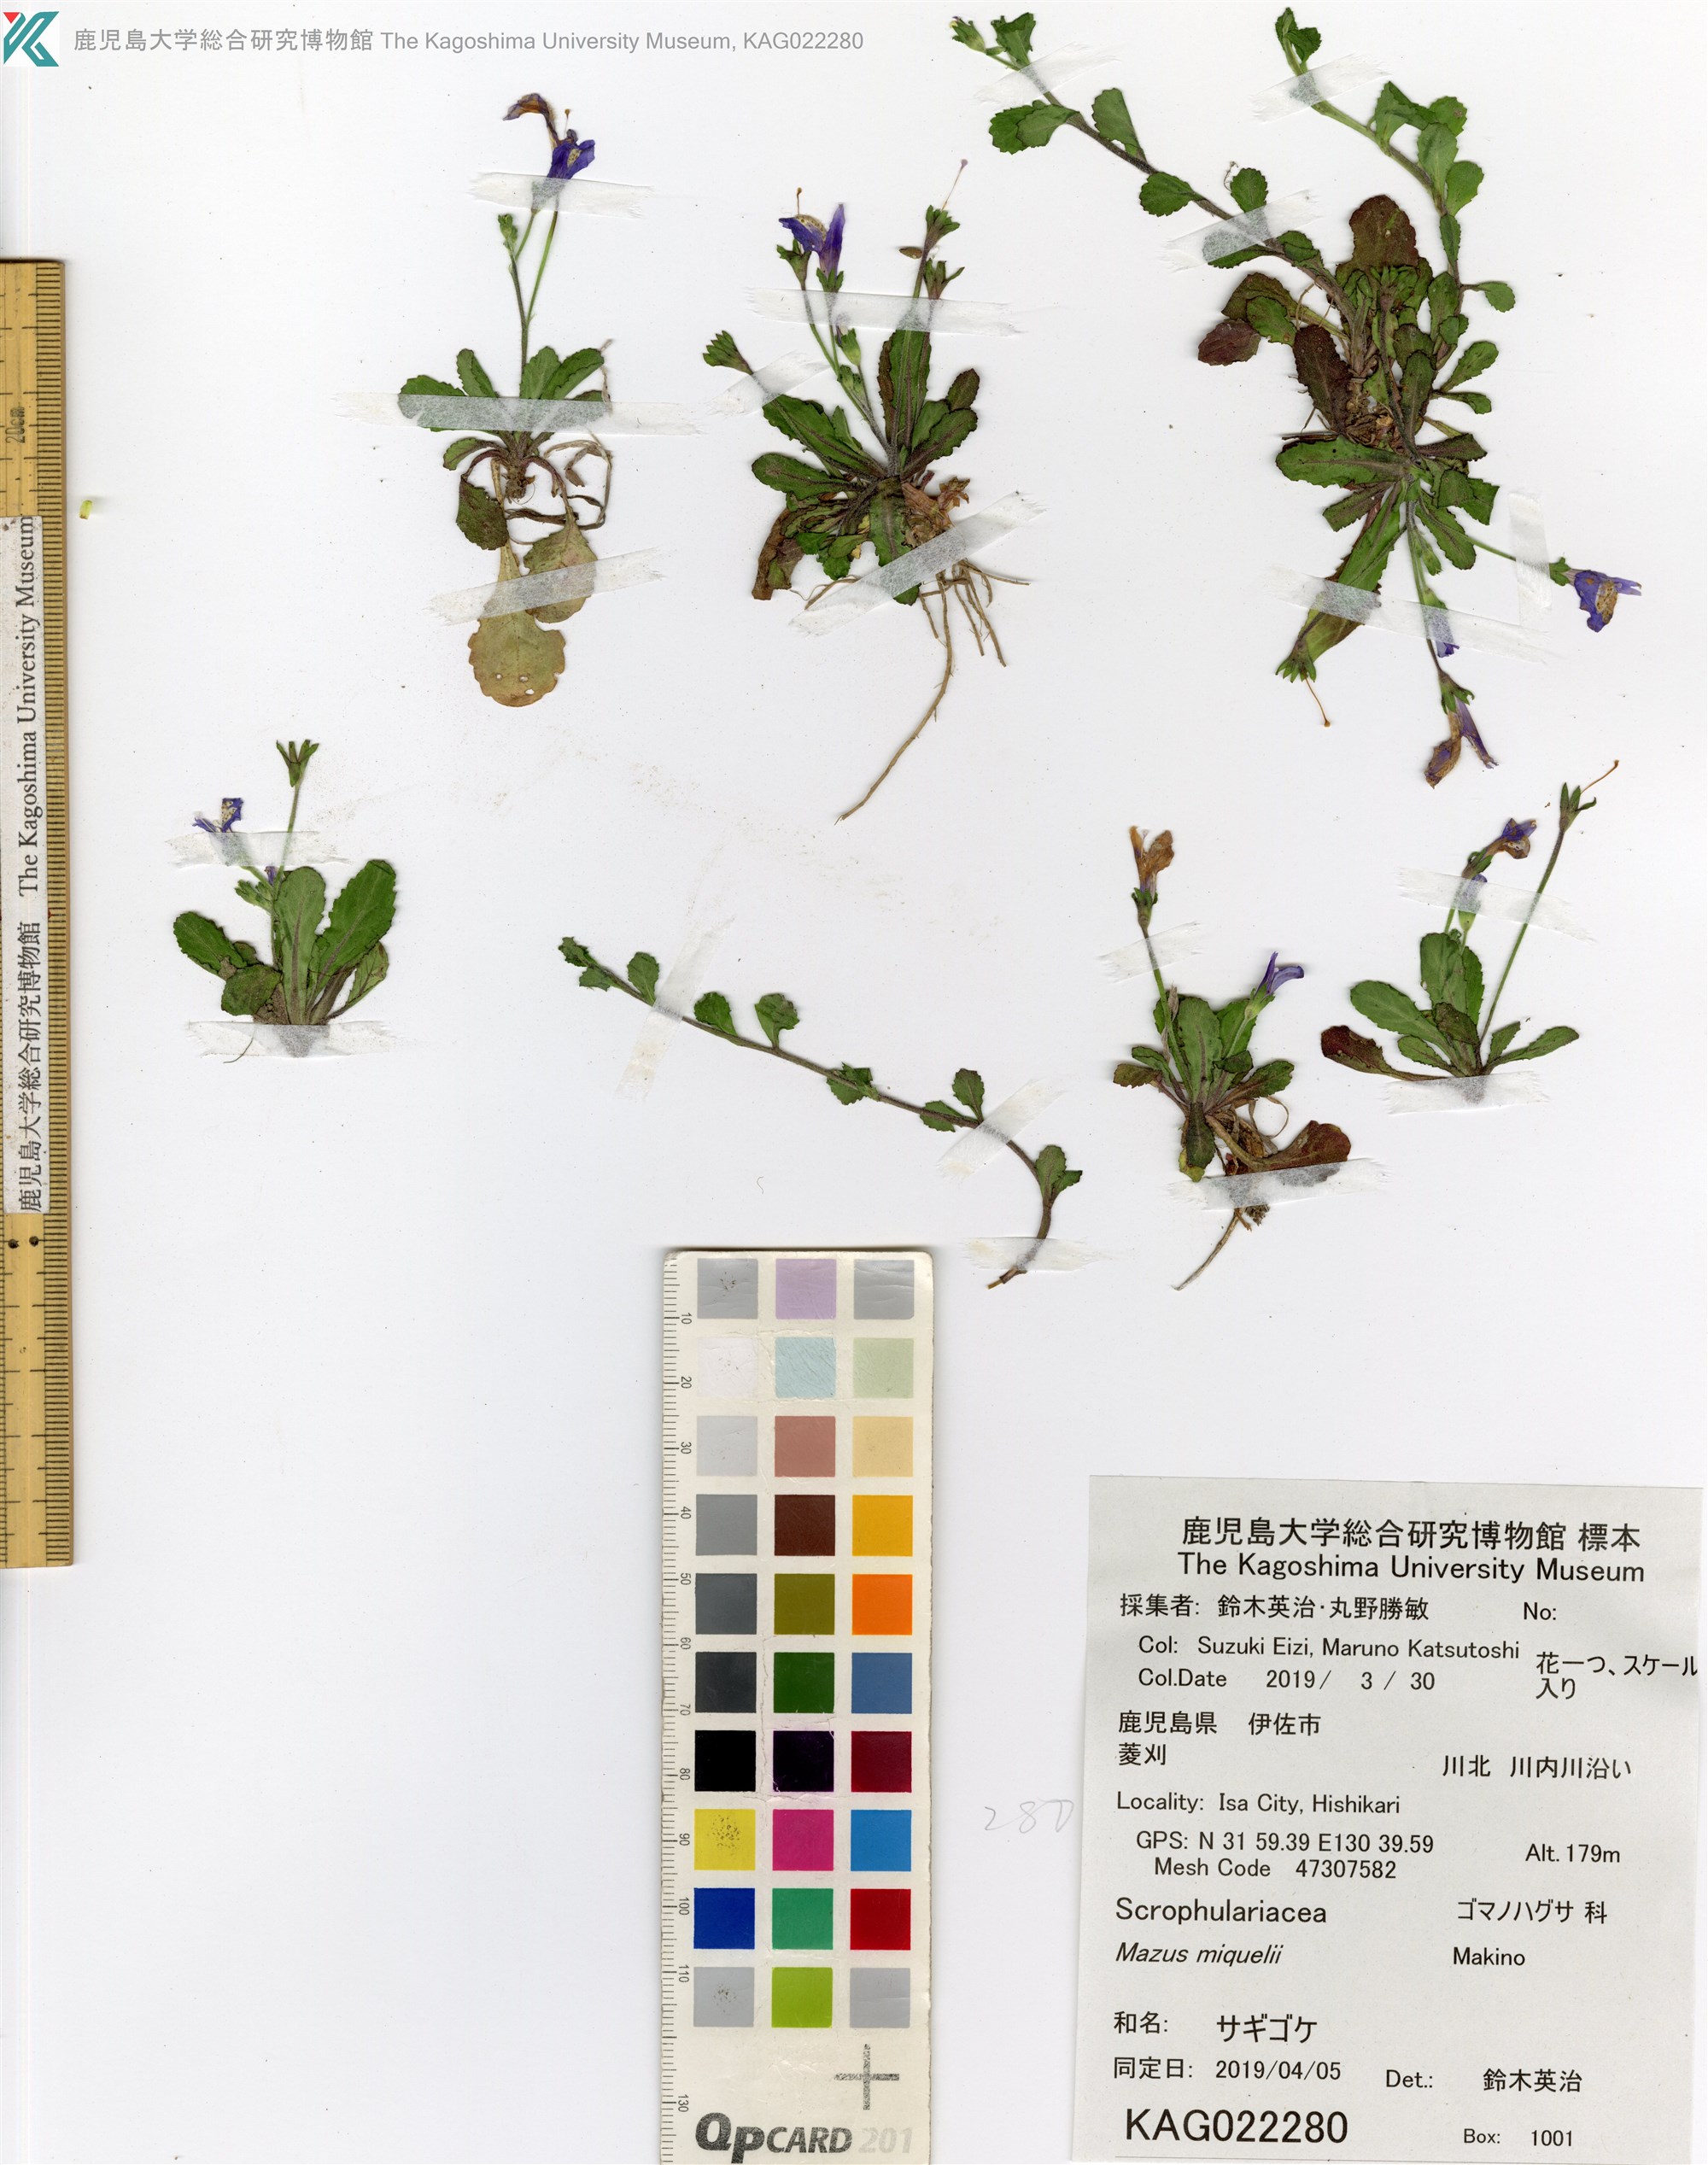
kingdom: Plantae
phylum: Tracheophyta
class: Magnoliopsida
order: Lamiales
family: Mazaceae
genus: Mazus
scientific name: Mazus miquelii
